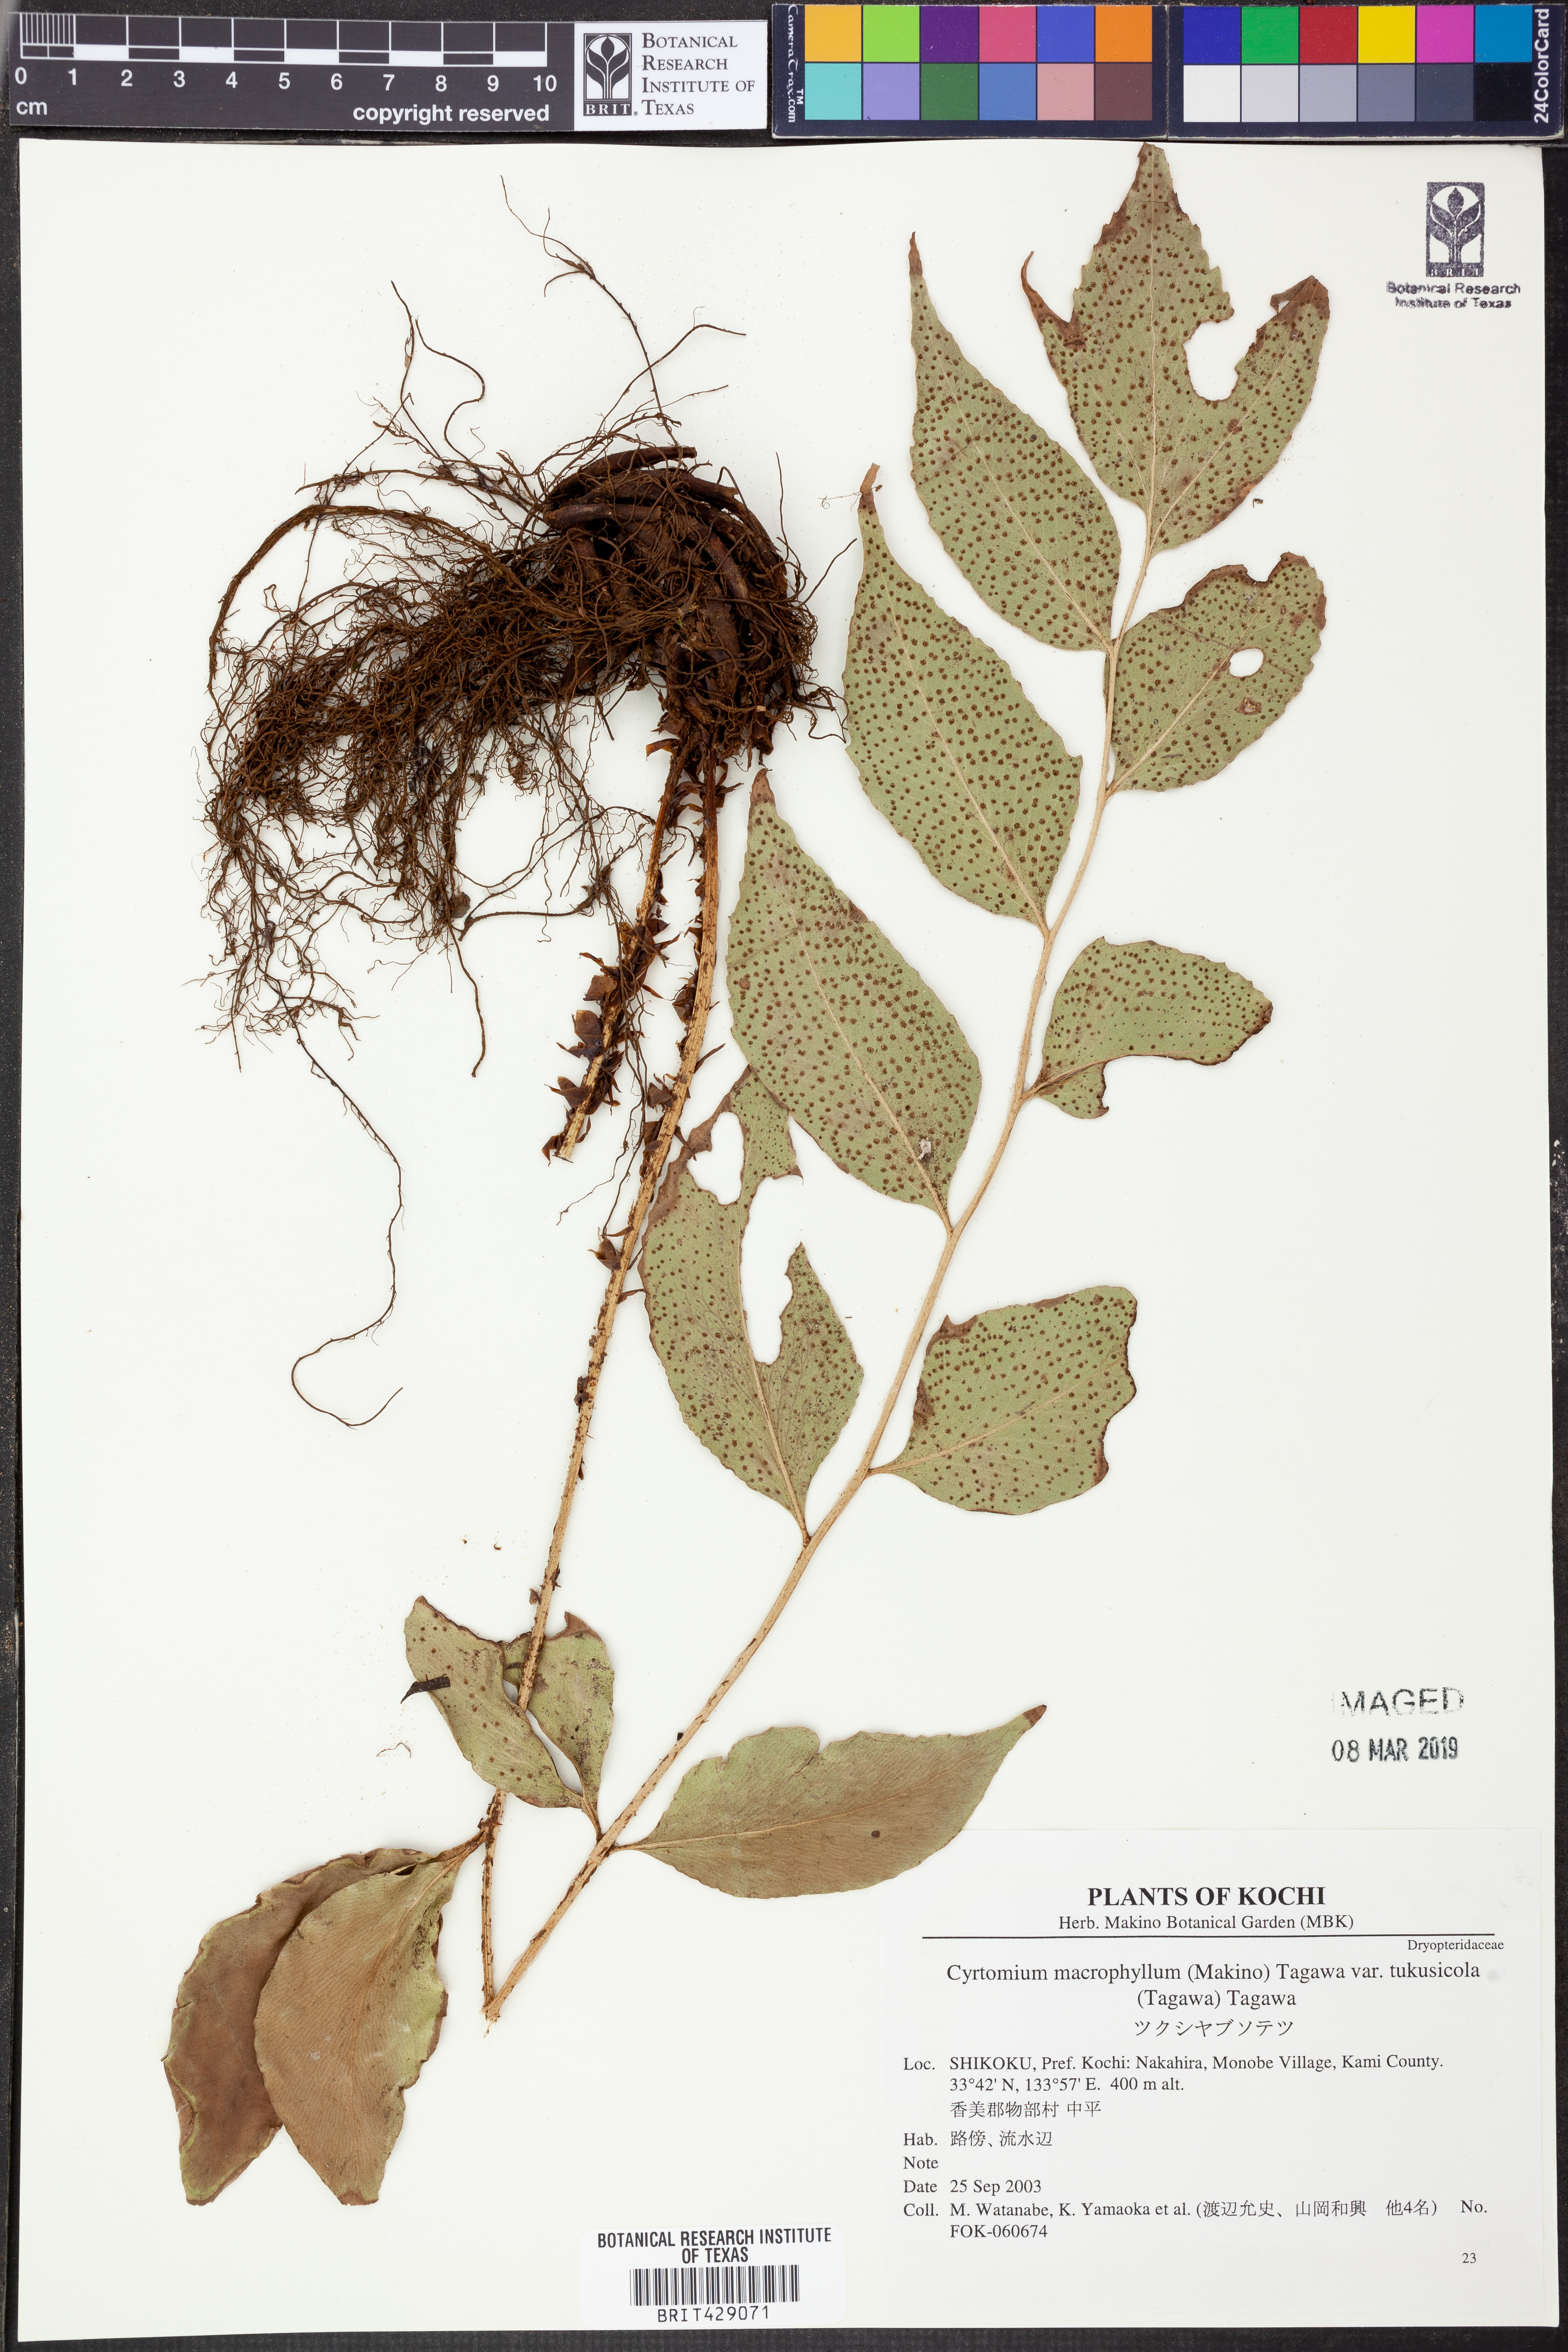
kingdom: Plantae
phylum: Tracheophyta
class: Polypodiopsida
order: Polypodiales
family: Dryopteridaceae
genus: Cyrtomium
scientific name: Cyrtomium macrophyllum
